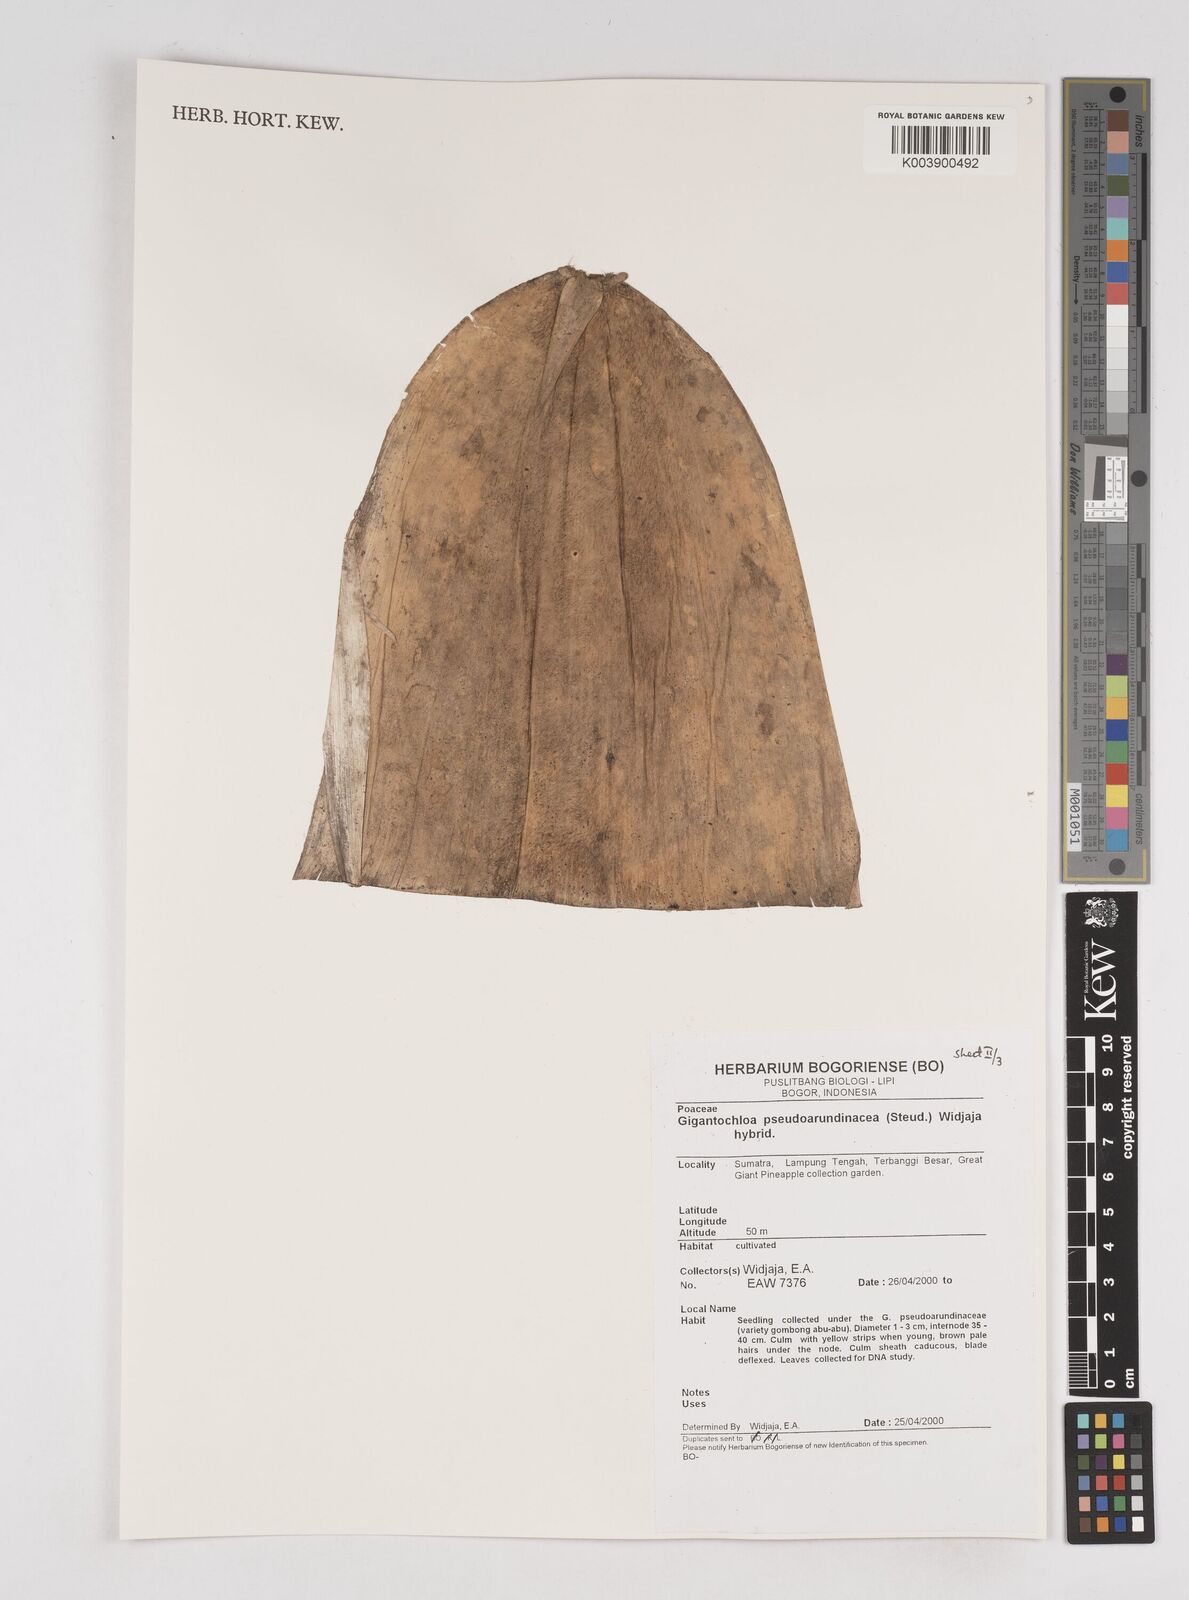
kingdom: Plantae
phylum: Tracheophyta
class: Liliopsida
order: Poales
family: Poaceae
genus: Gigantochloa
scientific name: Gigantochloa verticillata
